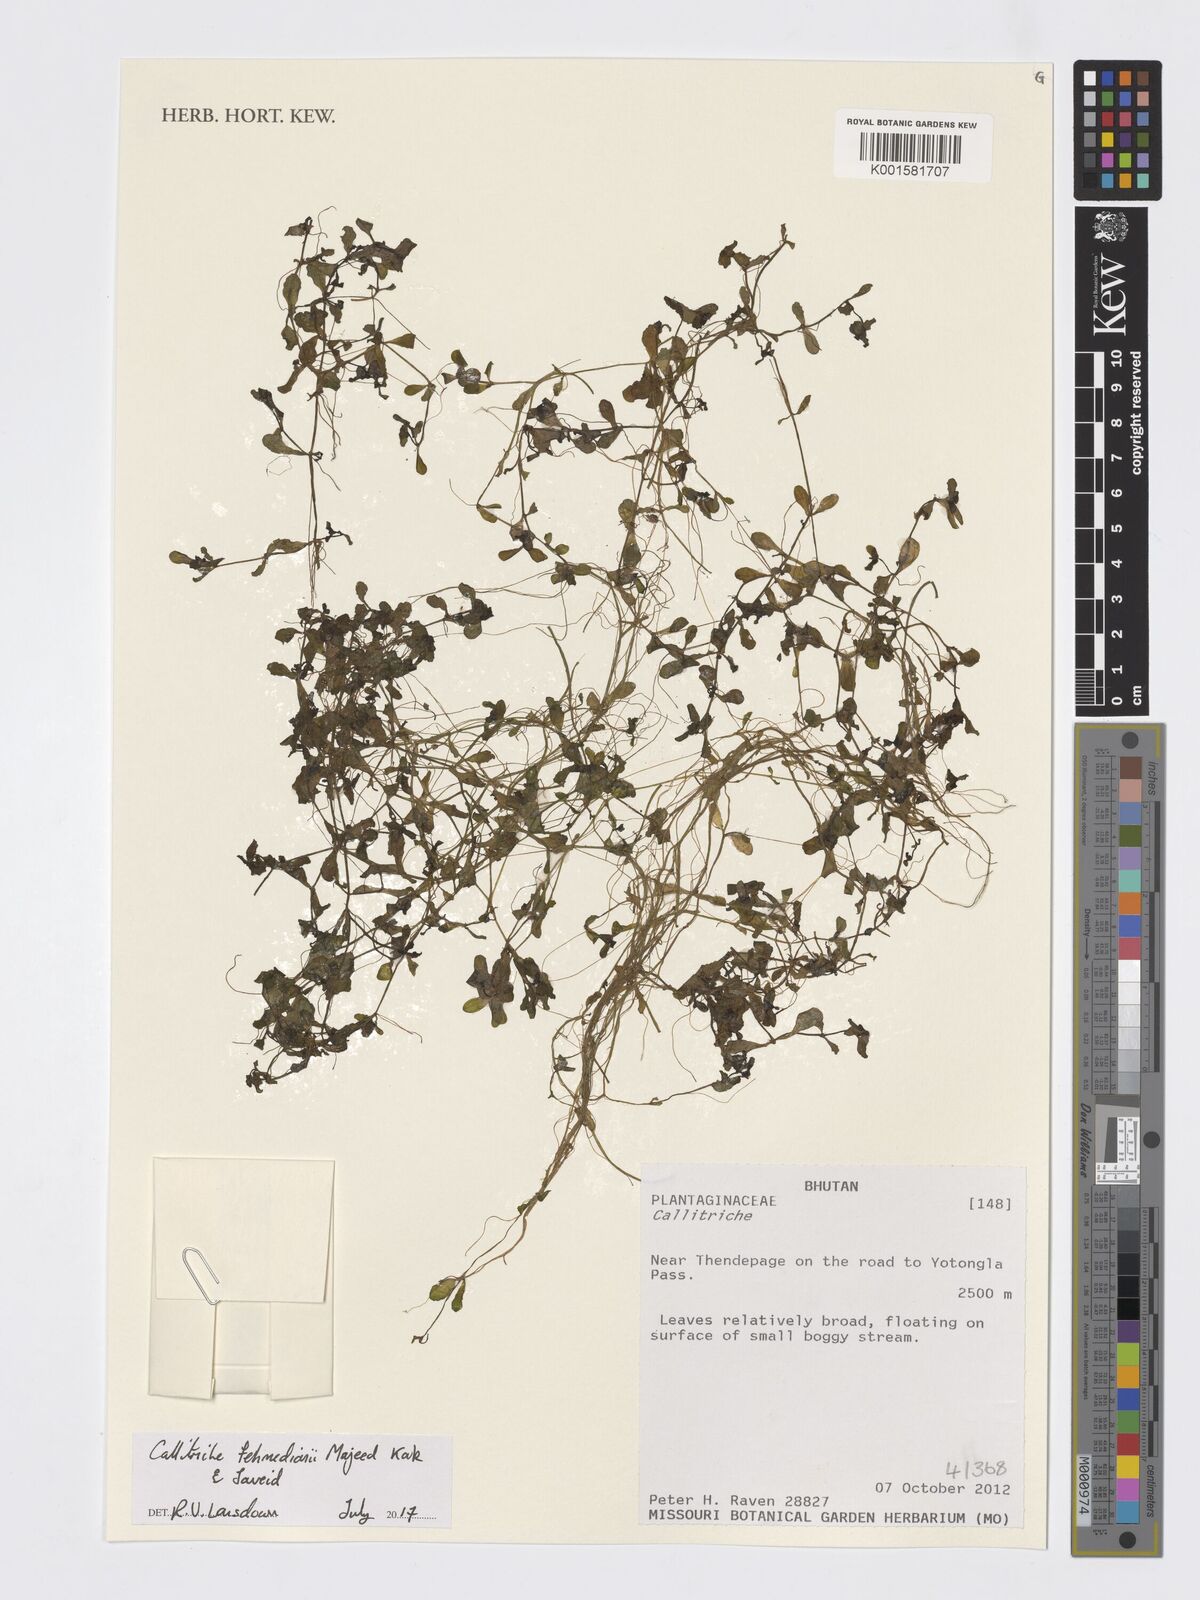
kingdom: Plantae
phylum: Tracheophyta
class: Magnoliopsida
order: Lamiales
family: Plantaginaceae
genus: Callitriche
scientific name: Callitriche fehmedianii
